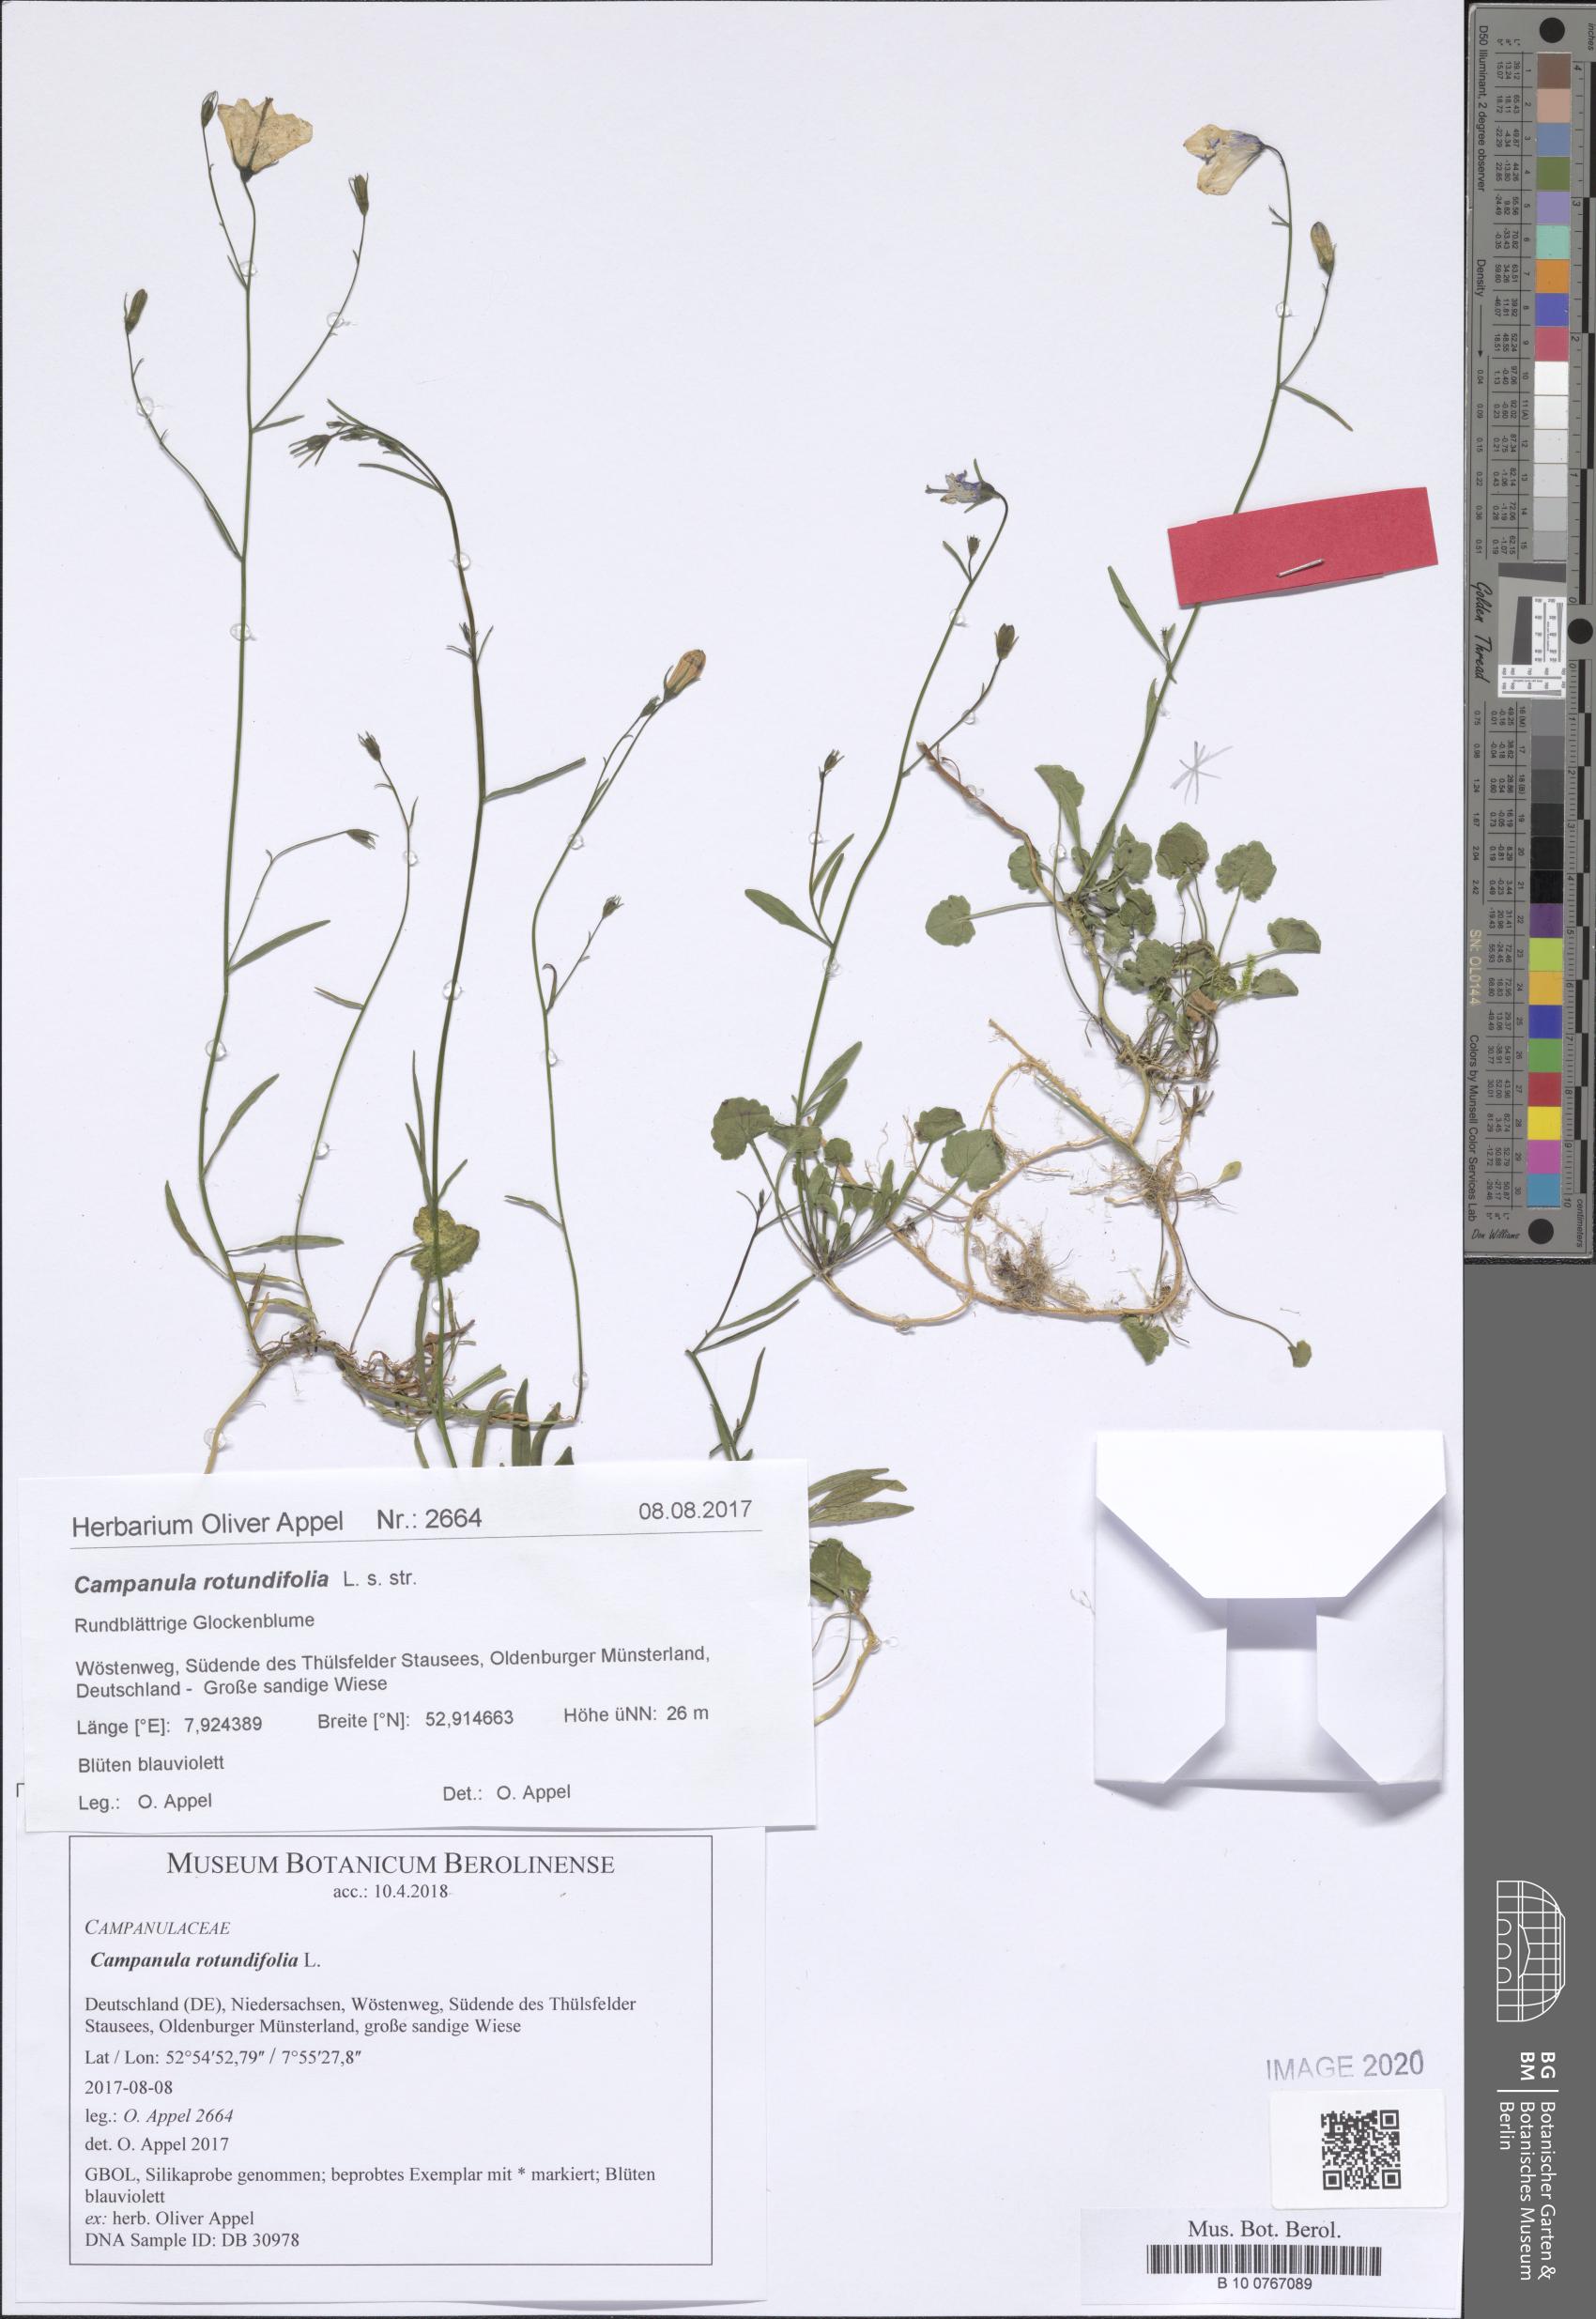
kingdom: Plantae
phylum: Tracheophyta
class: Magnoliopsida
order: Asterales
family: Campanulaceae
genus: Campanula
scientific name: Campanula rotundifolia
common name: Harebell
